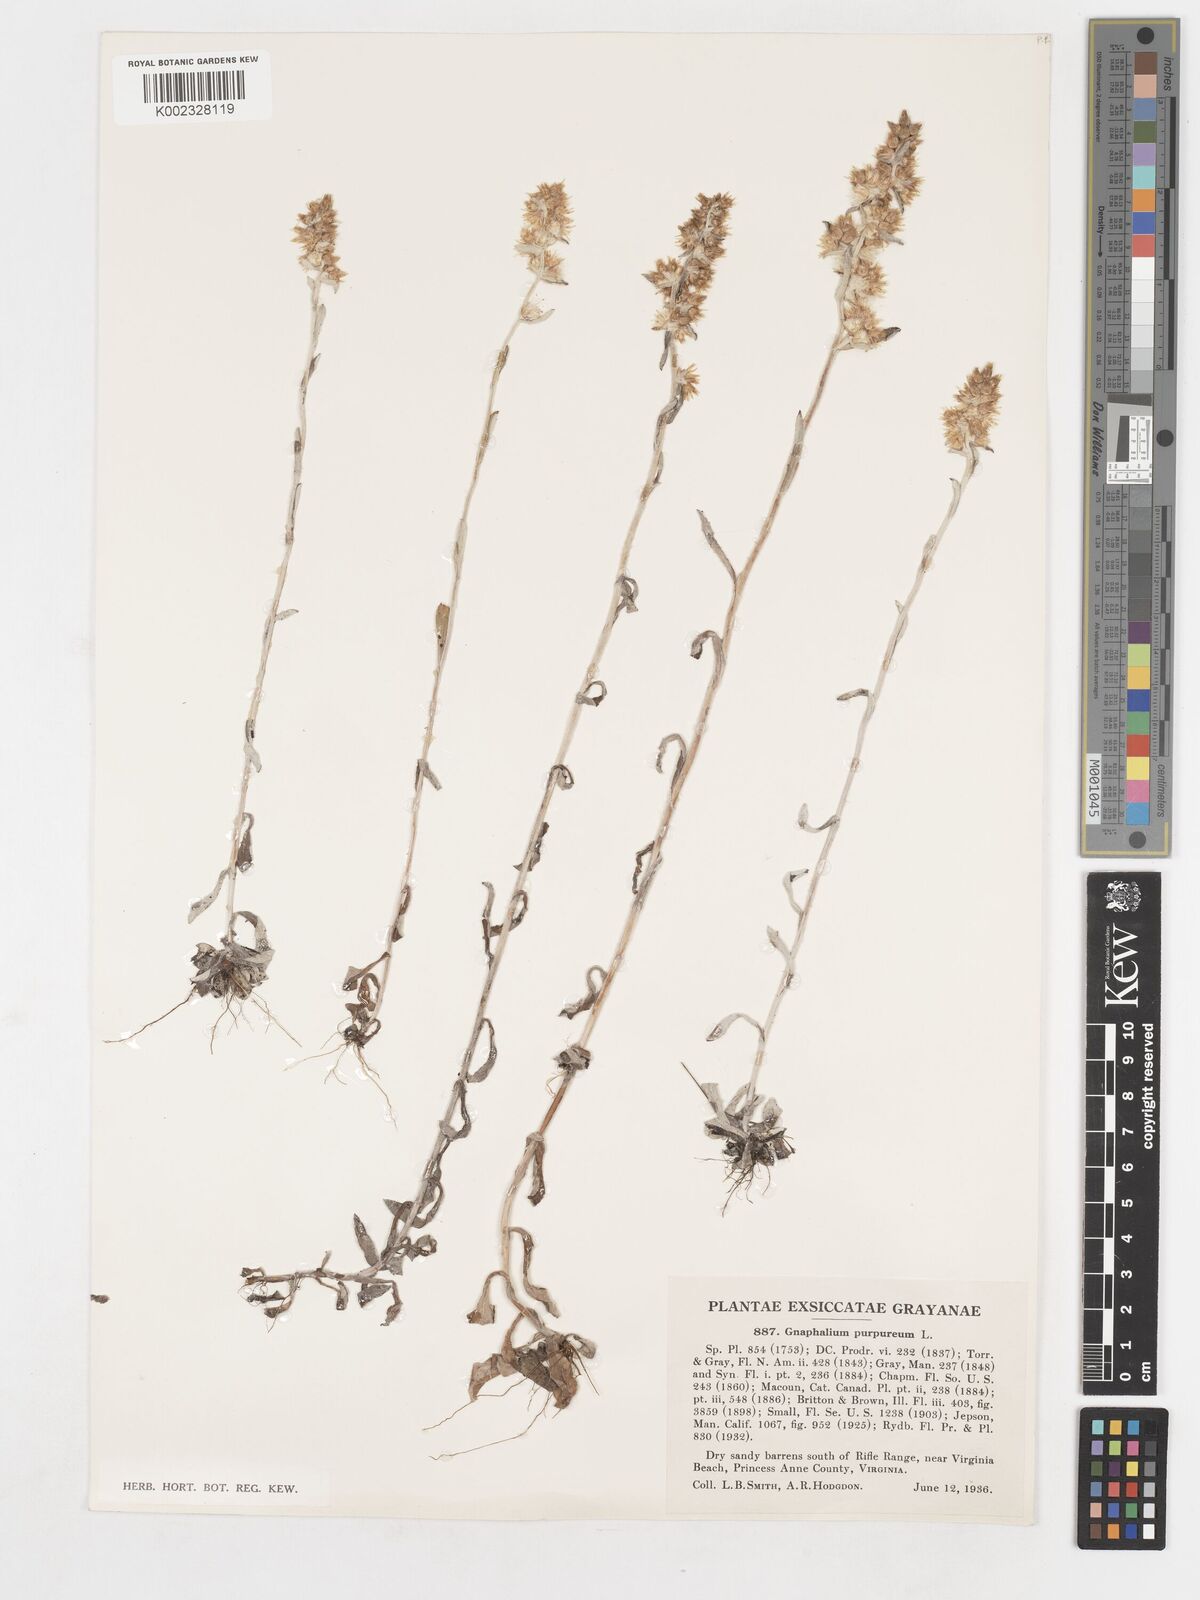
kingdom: Plantae
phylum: Tracheophyta
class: Magnoliopsida
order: Asterales
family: Asteraceae
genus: Gamochaeta
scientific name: Gamochaeta purpurea
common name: Purple cudweed
